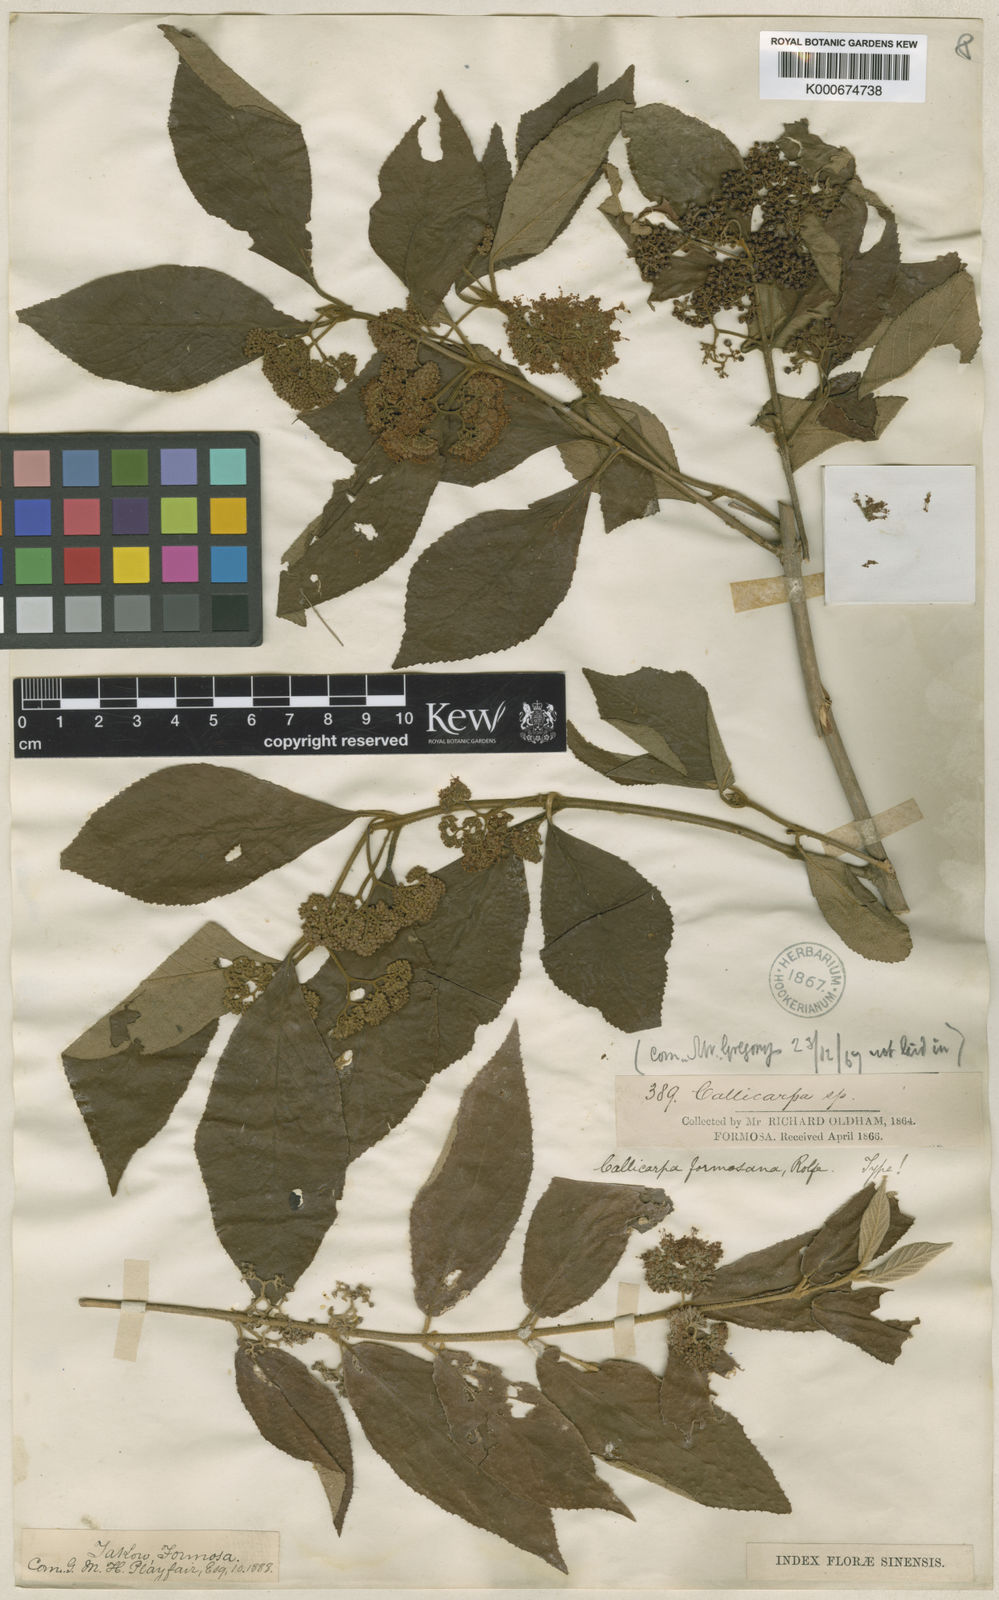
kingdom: Plantae
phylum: Tracheophyta
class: Magnoliopsida
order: Lamiales
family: Lamiaceae
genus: Callicarpa
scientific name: Callicarpa pedunculata
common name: Velvetleaf
